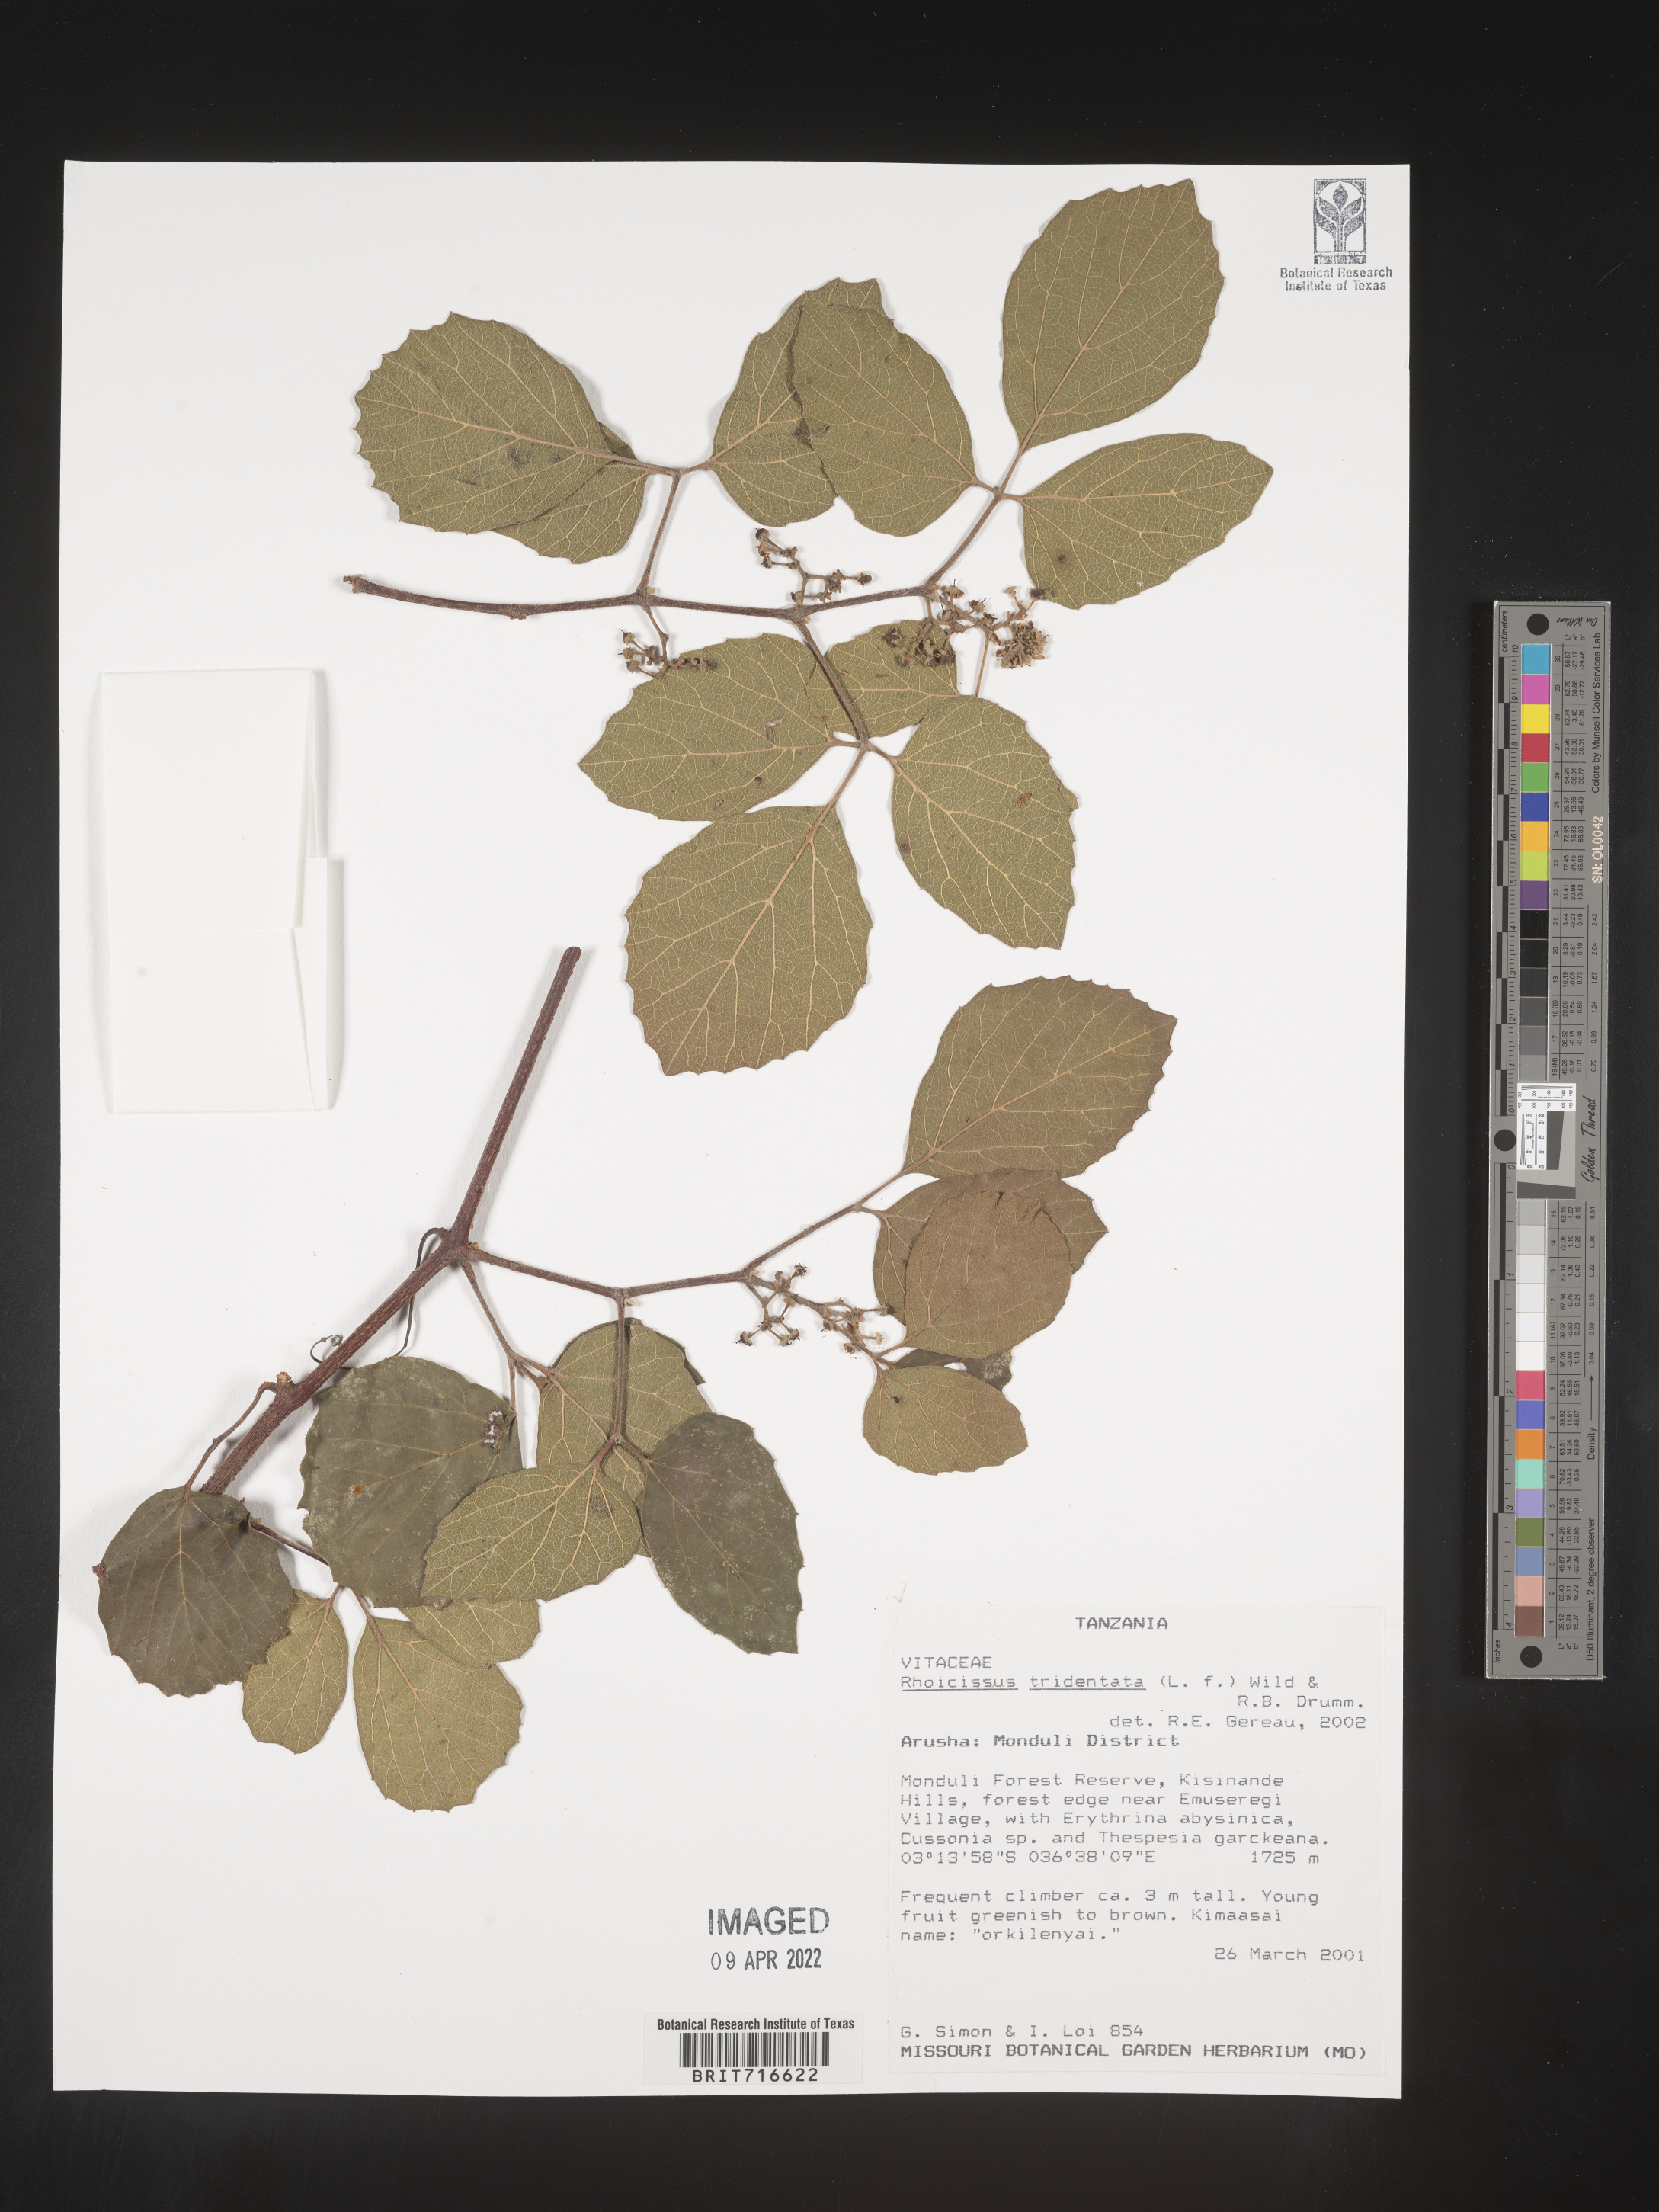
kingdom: Plantae
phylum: Tracheophyta
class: Magnoliopsida
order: Vitales
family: Vitaceae
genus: Rhoicissus
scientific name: Rhoicissus tridentata
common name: Common forest grape
